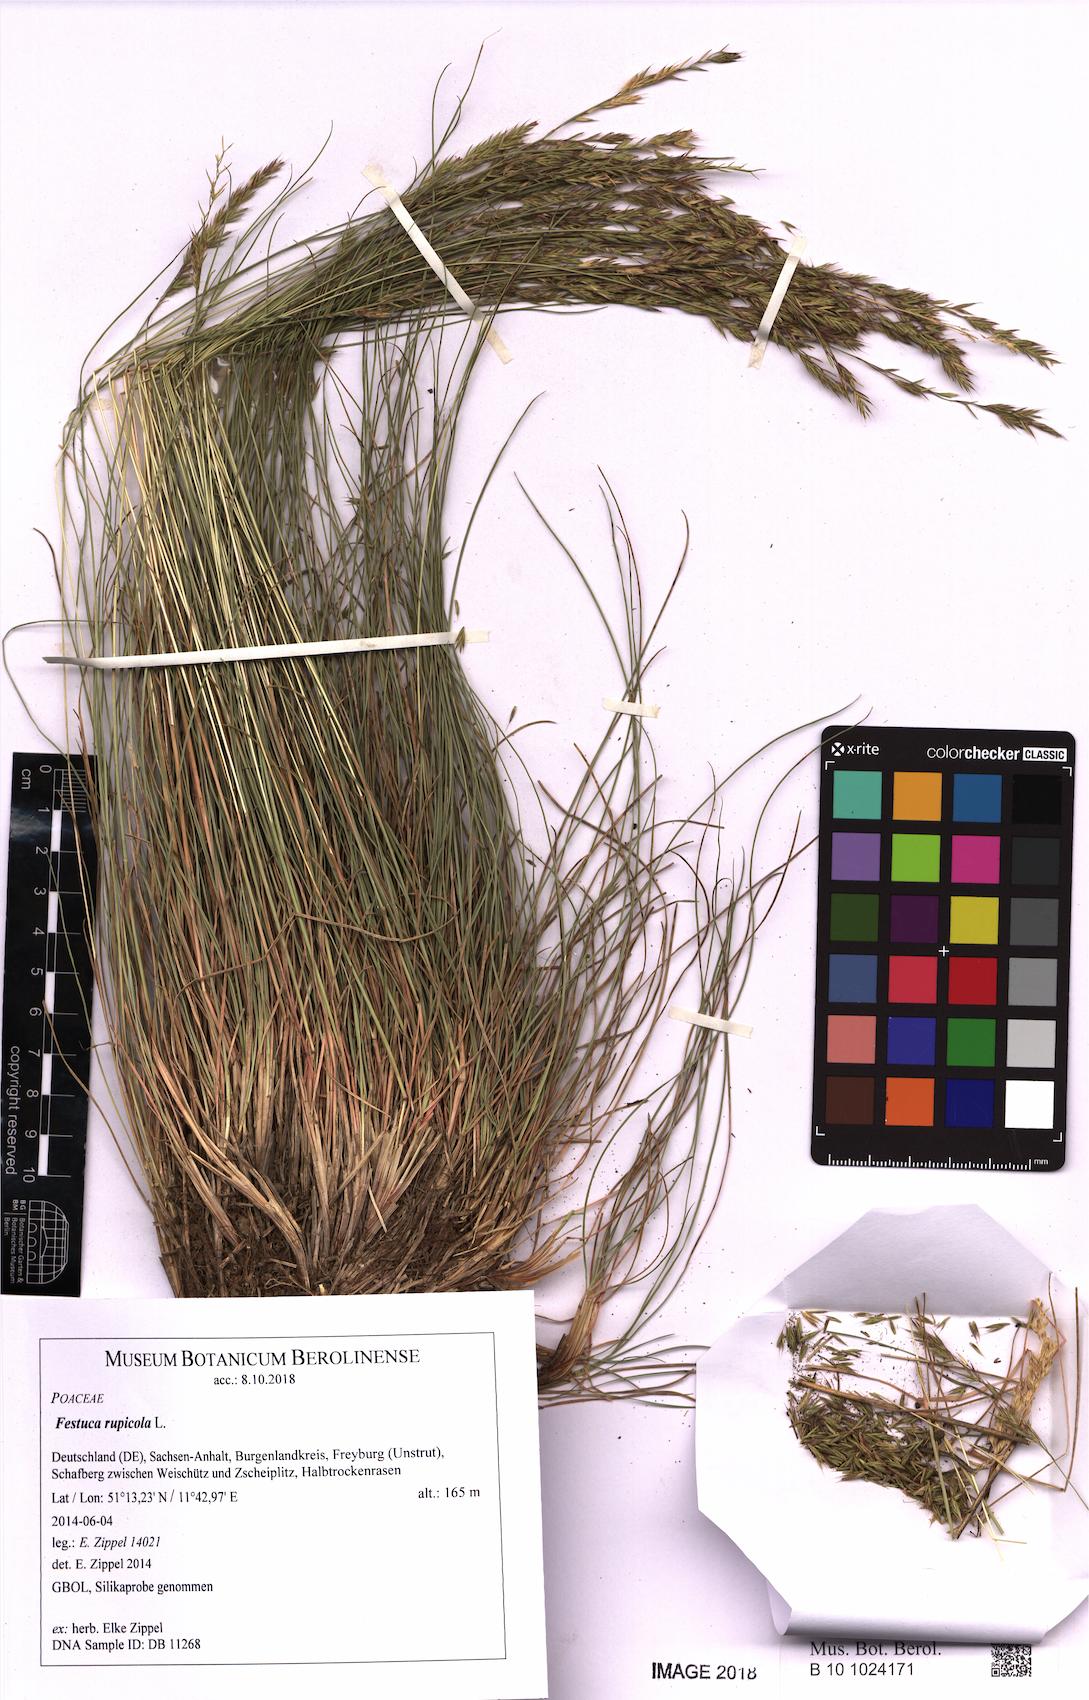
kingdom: Plantae
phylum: Tracheophyta
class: Liliopsida
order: Poales
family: Poaceae
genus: Festuca
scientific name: Festuca rupicola
